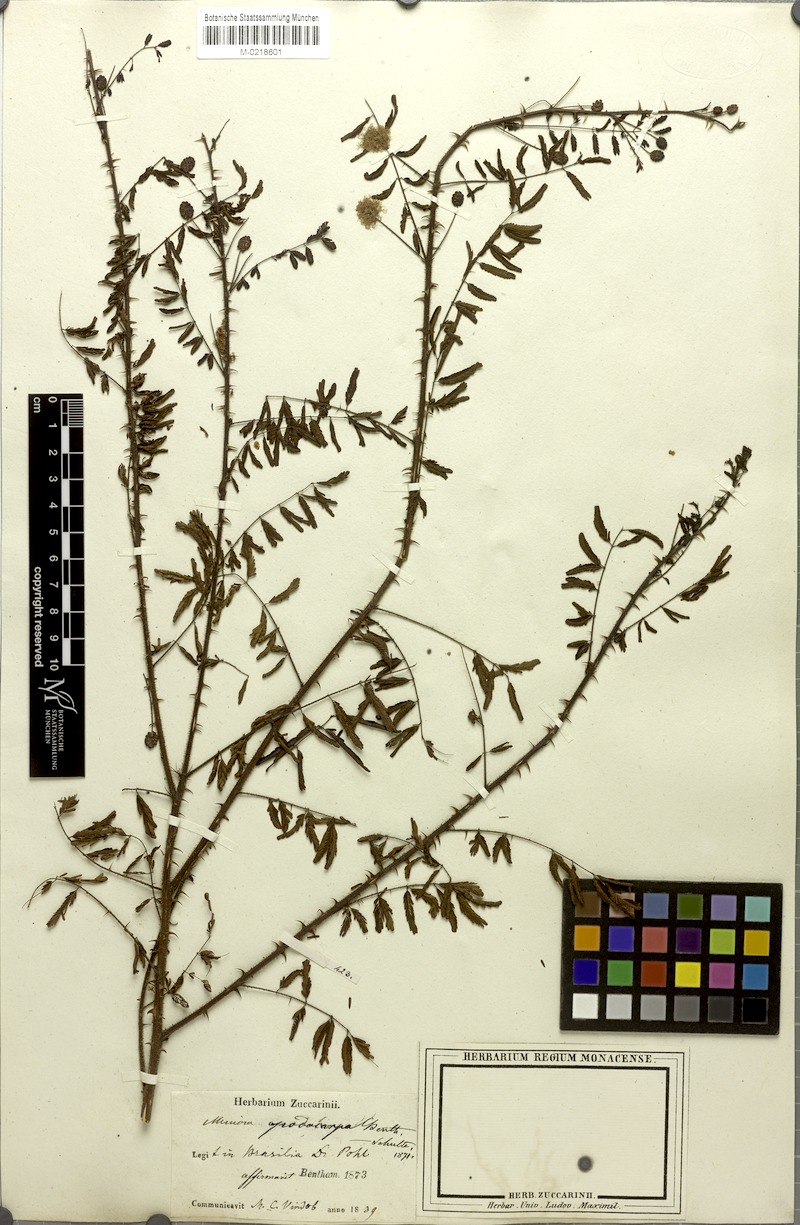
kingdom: Plantae
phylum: Tracheophyta
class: Magnoliopsida
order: Fabales
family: Fabaceae
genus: Mimosa
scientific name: Mimosa somnians
